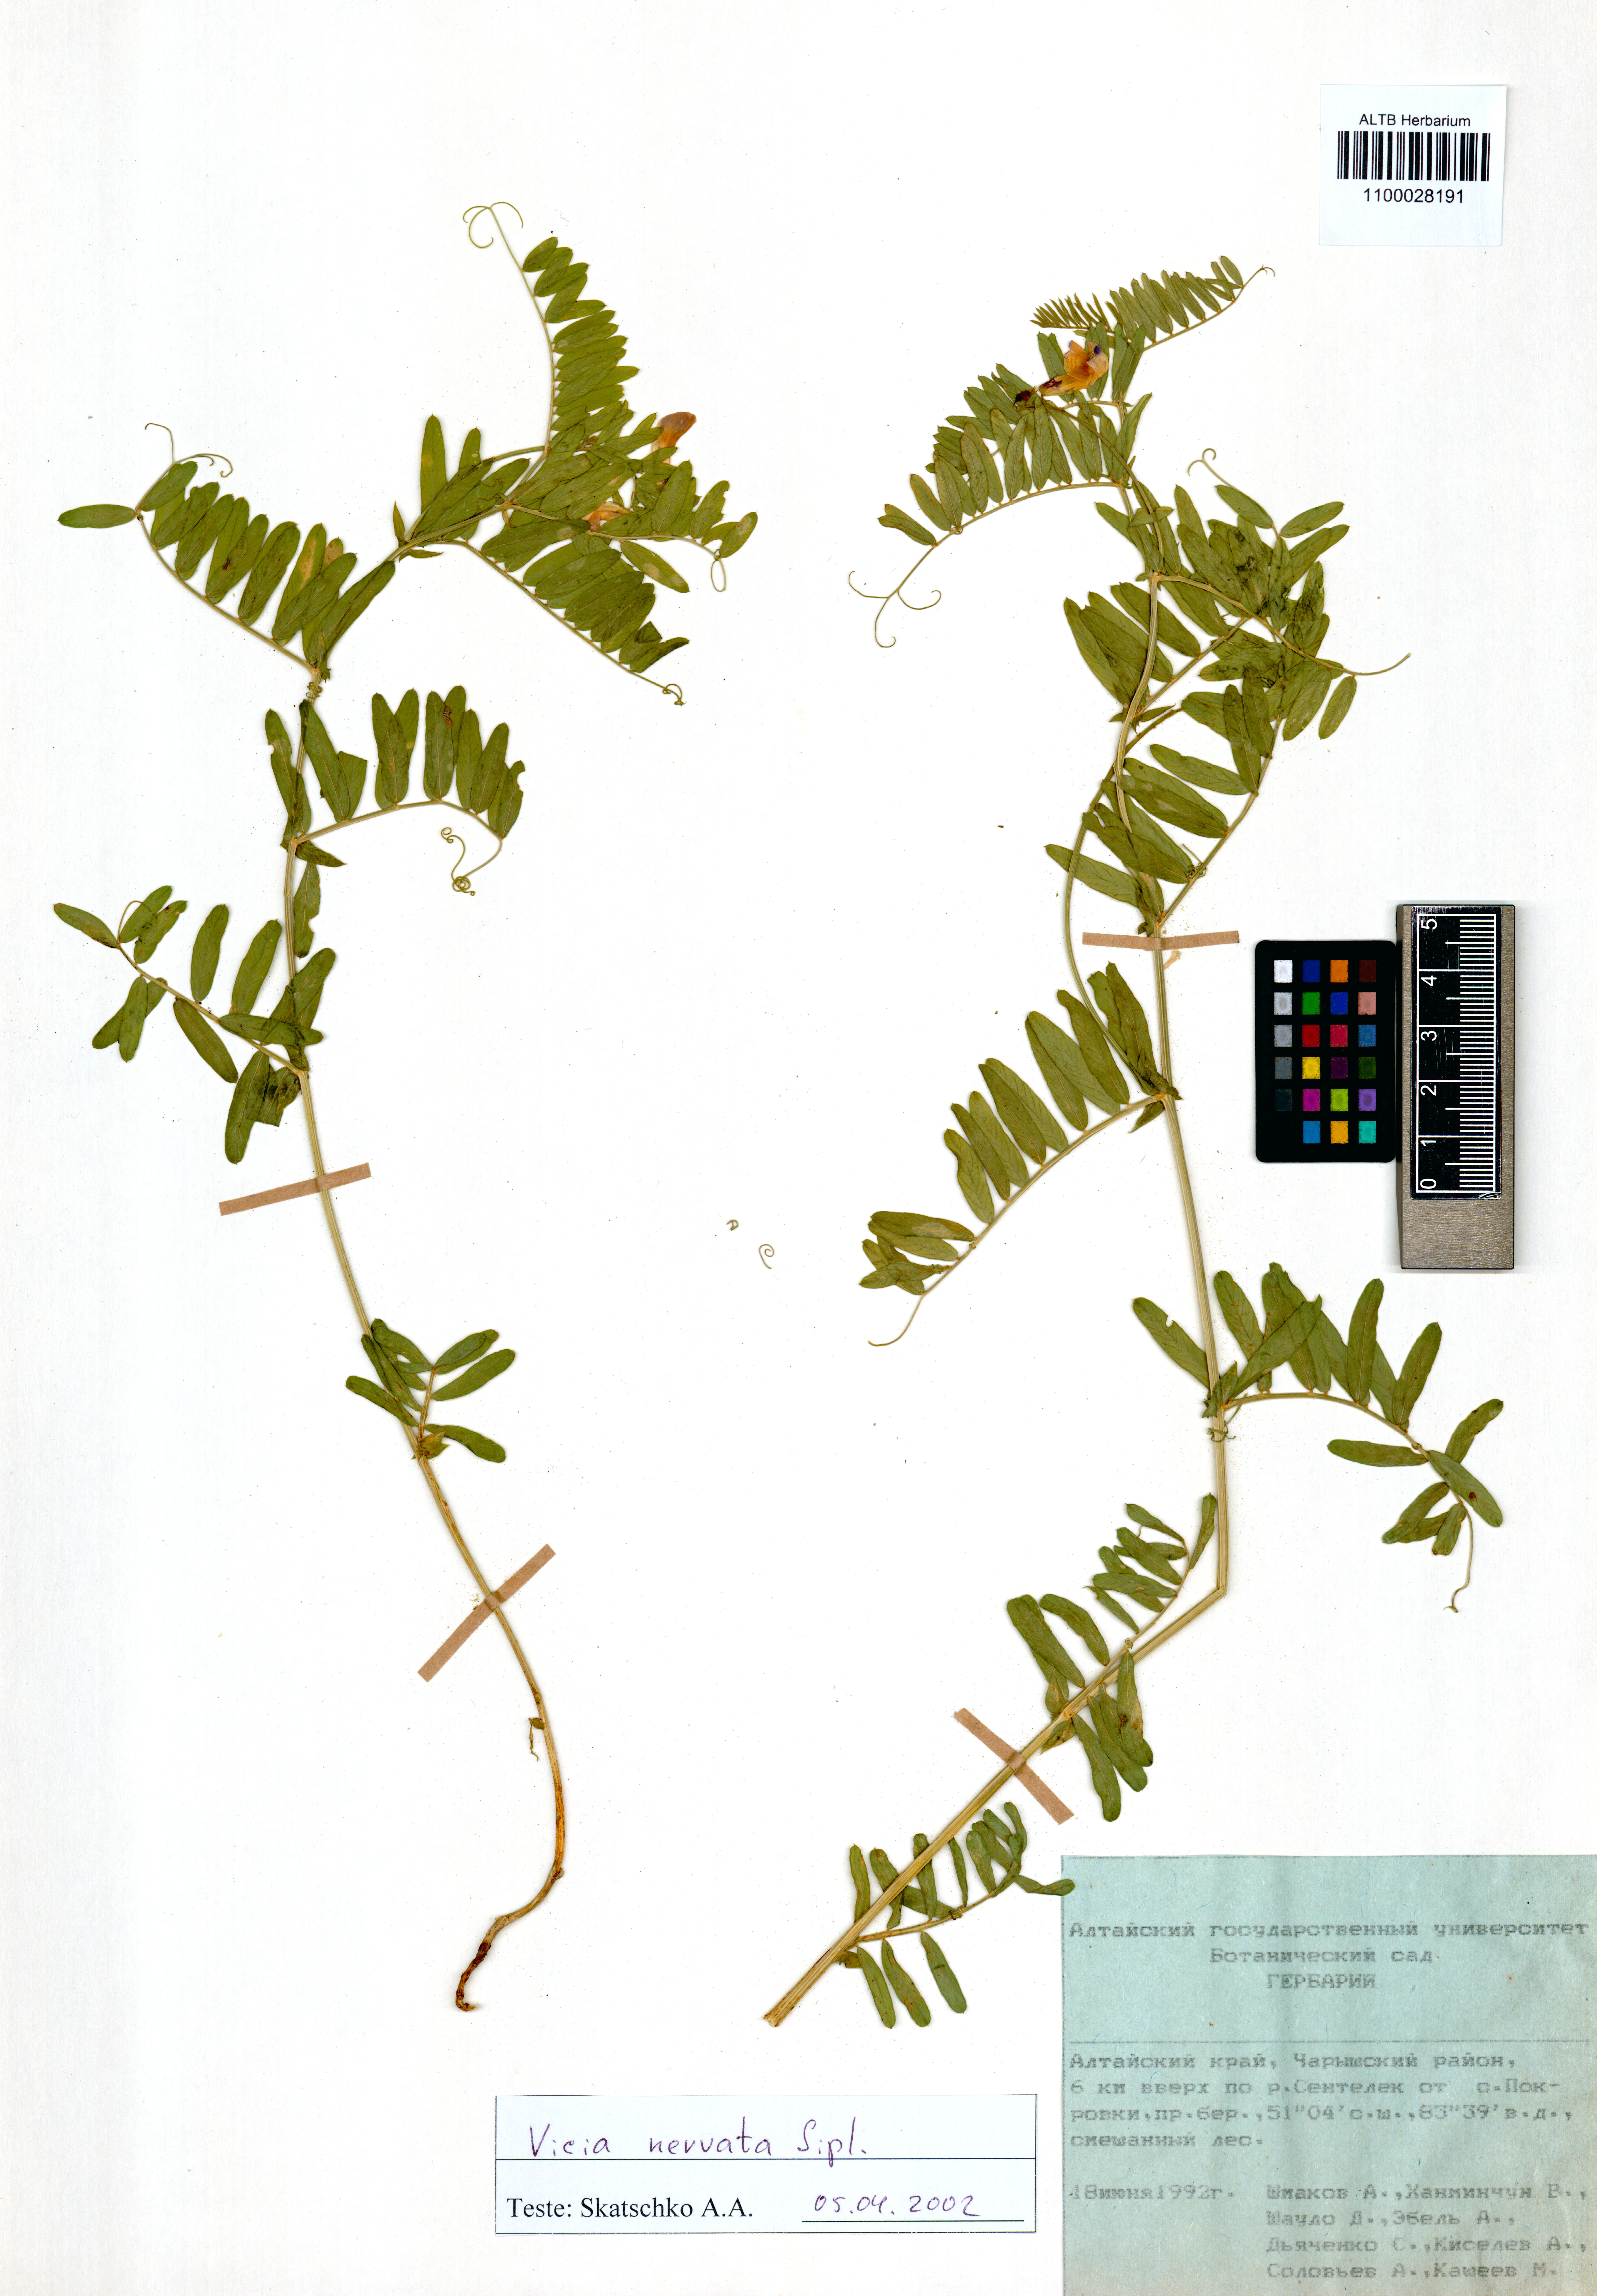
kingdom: Plantae
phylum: Tracheophyta
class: Magnoliopsida
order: Fabales
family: Fabaceae
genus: Vicia
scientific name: Vicia multicaulis
